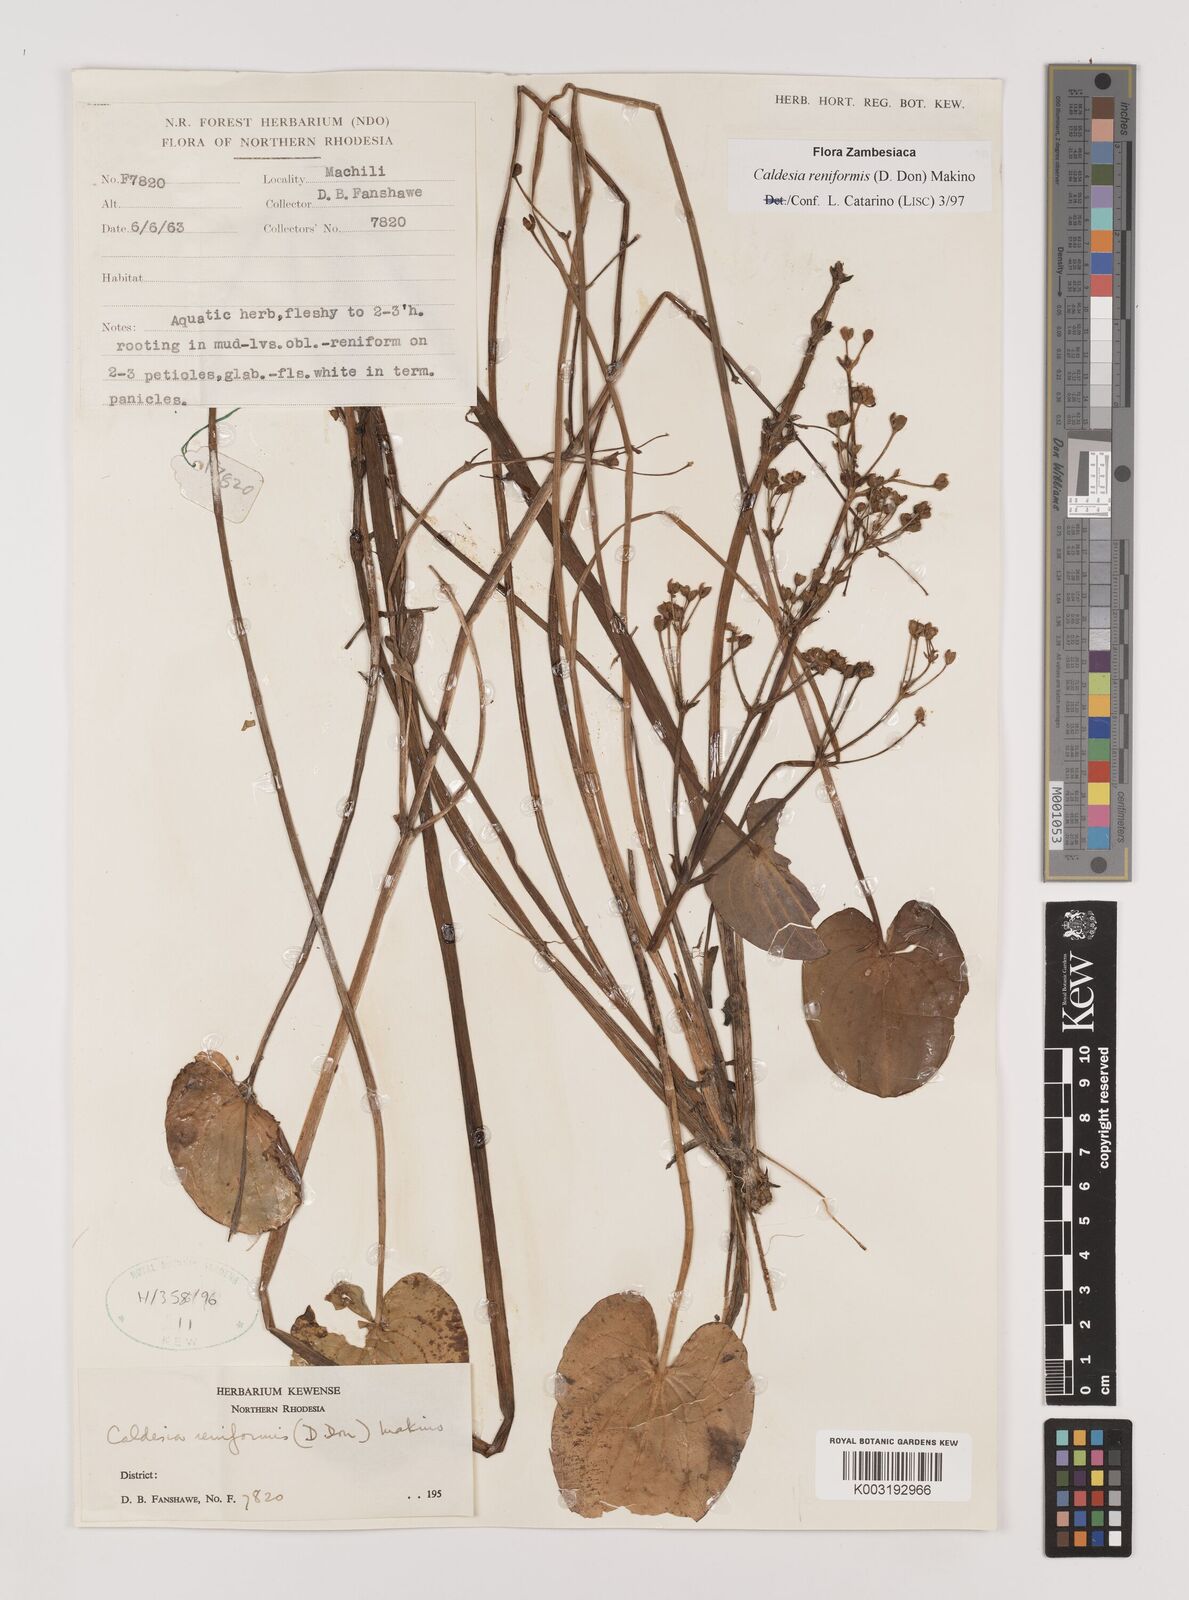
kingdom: Plantae
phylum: Tracheophyta
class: Liliopsida
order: Alismatales
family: Alismataceae
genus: Caldesia
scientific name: Caldesia parnassifolia
